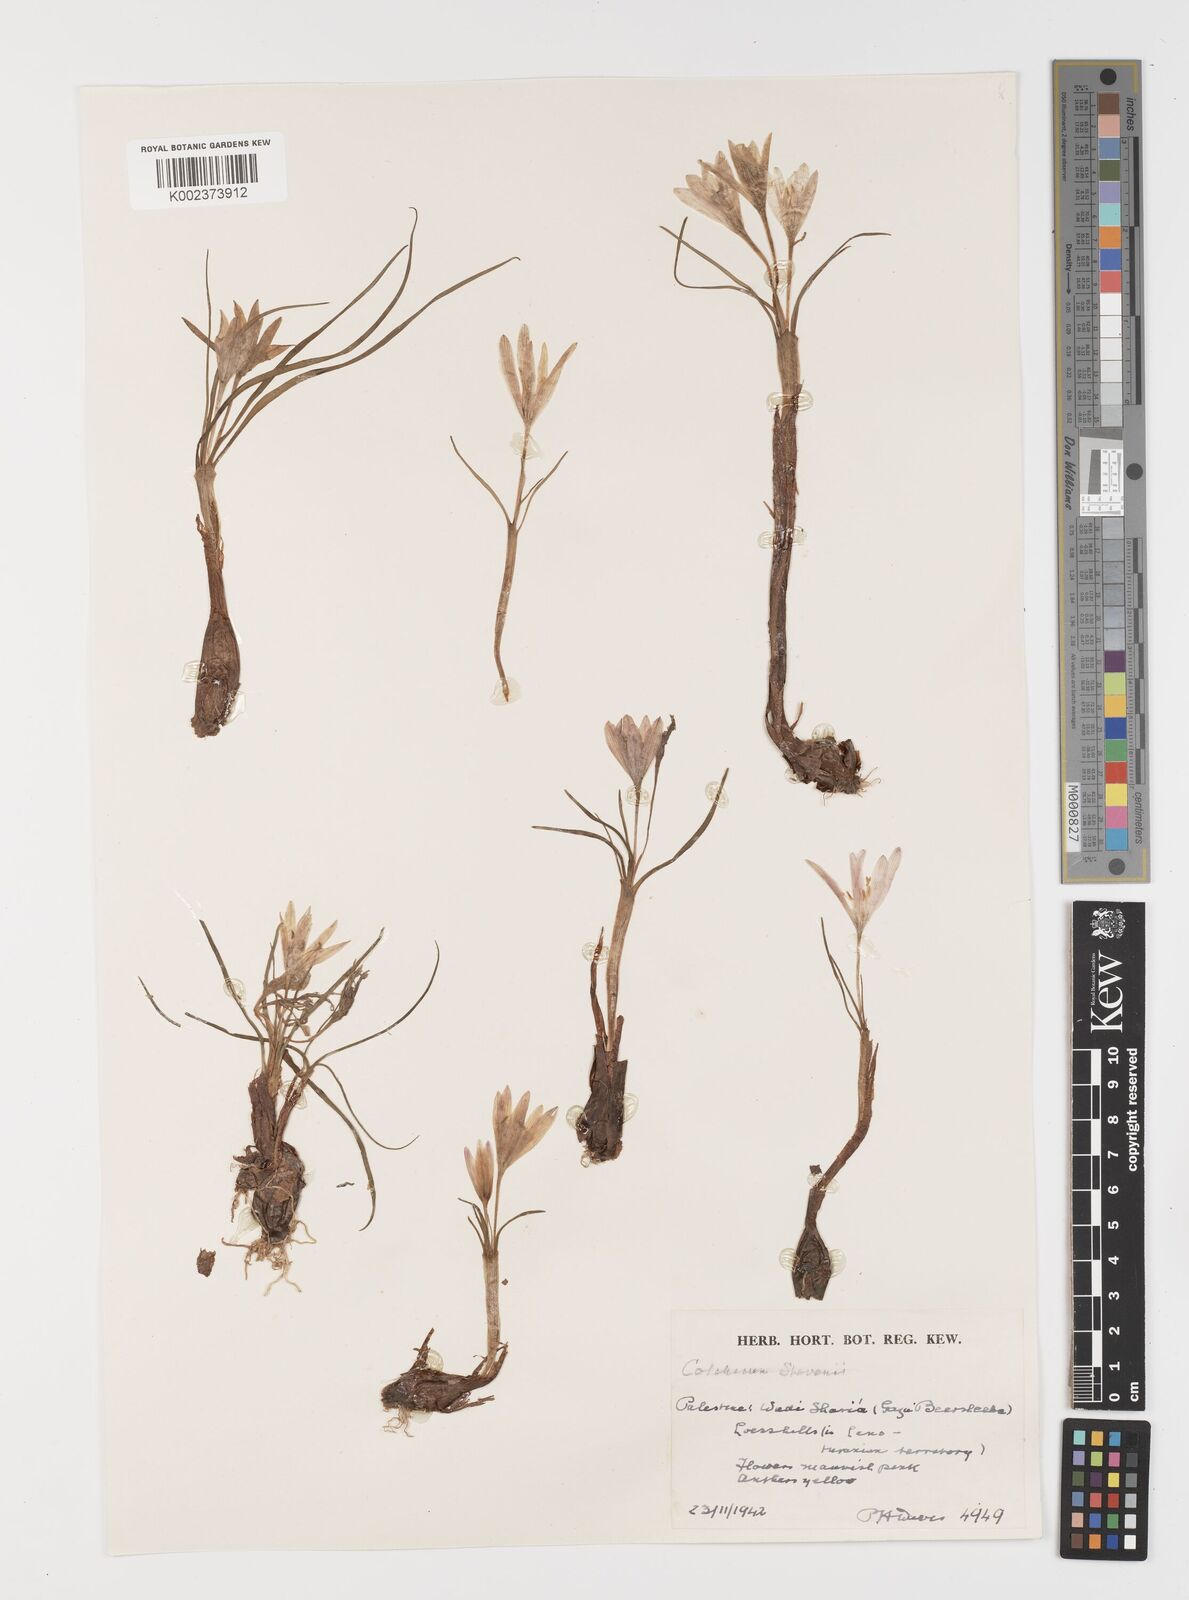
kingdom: Plantae
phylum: Tracheophyta
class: Liliopsida
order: Liliales
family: Colchicaceae
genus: Colchicum
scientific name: Colchicum stevenii
